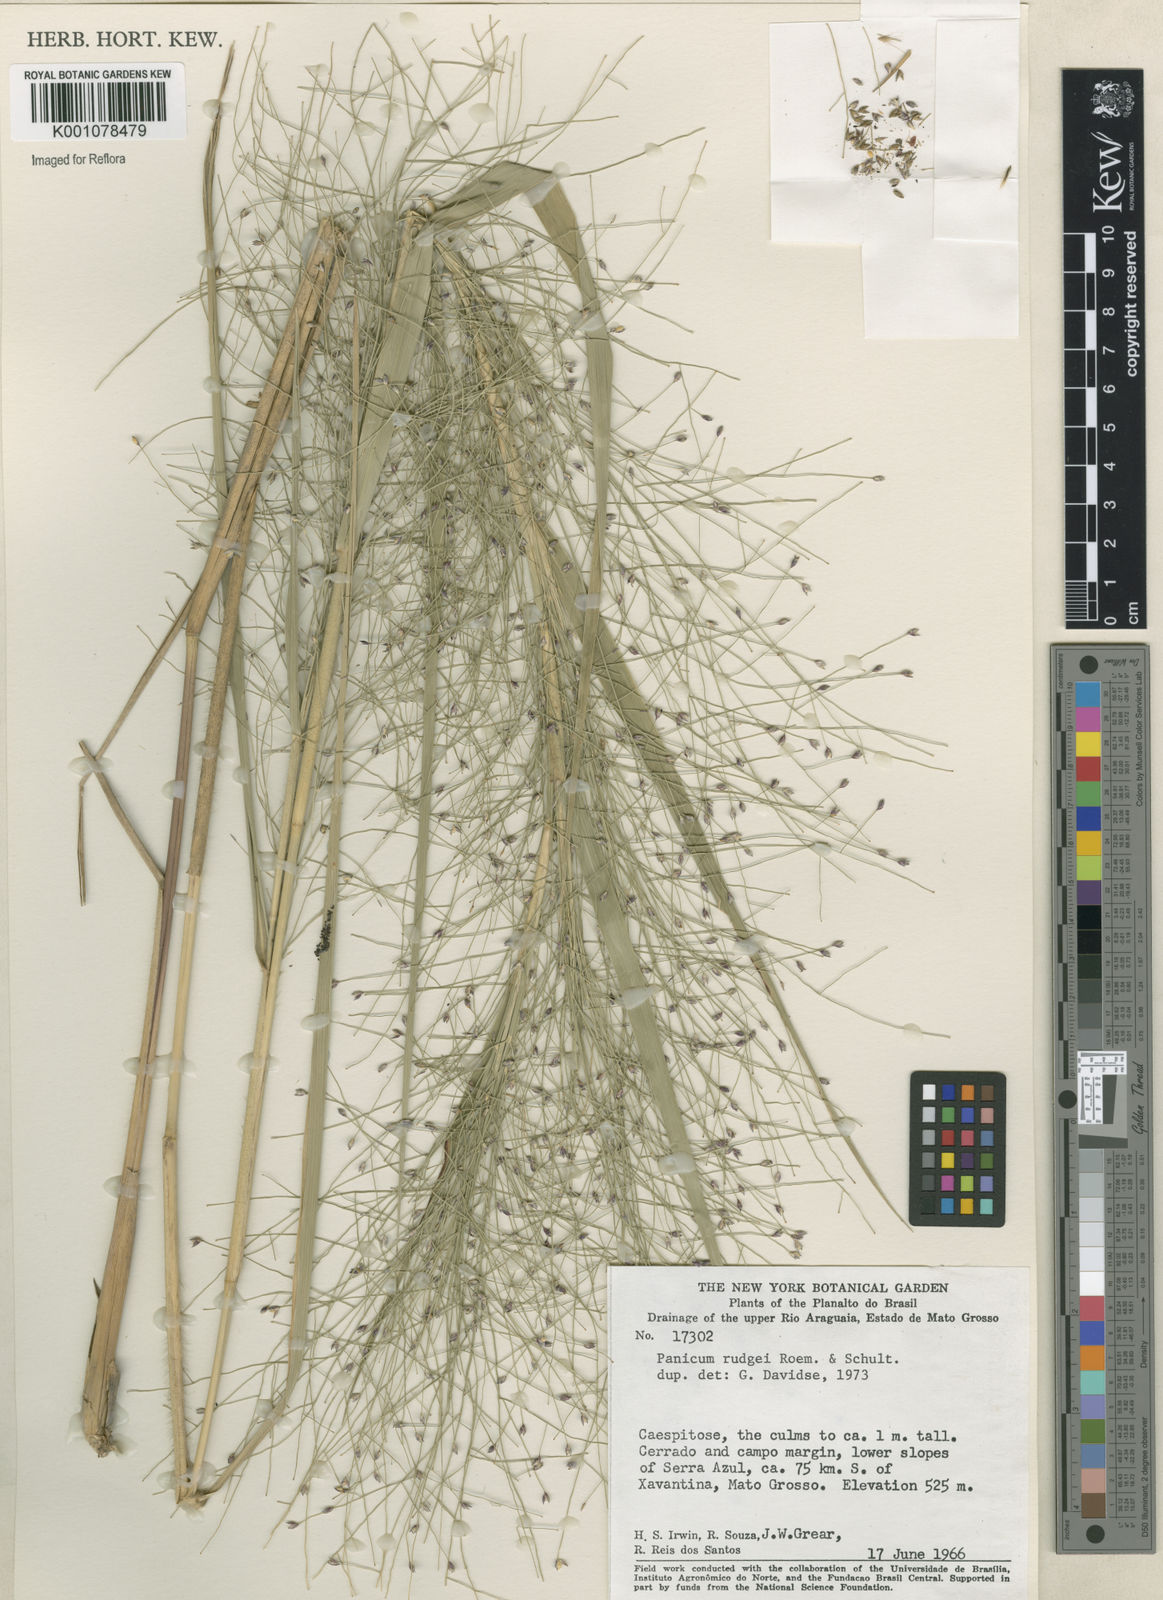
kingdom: Plantae
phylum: Tracheophyta
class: Liliopsida
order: Poales
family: Poaceae
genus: Panicum
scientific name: Panicum rudgei
